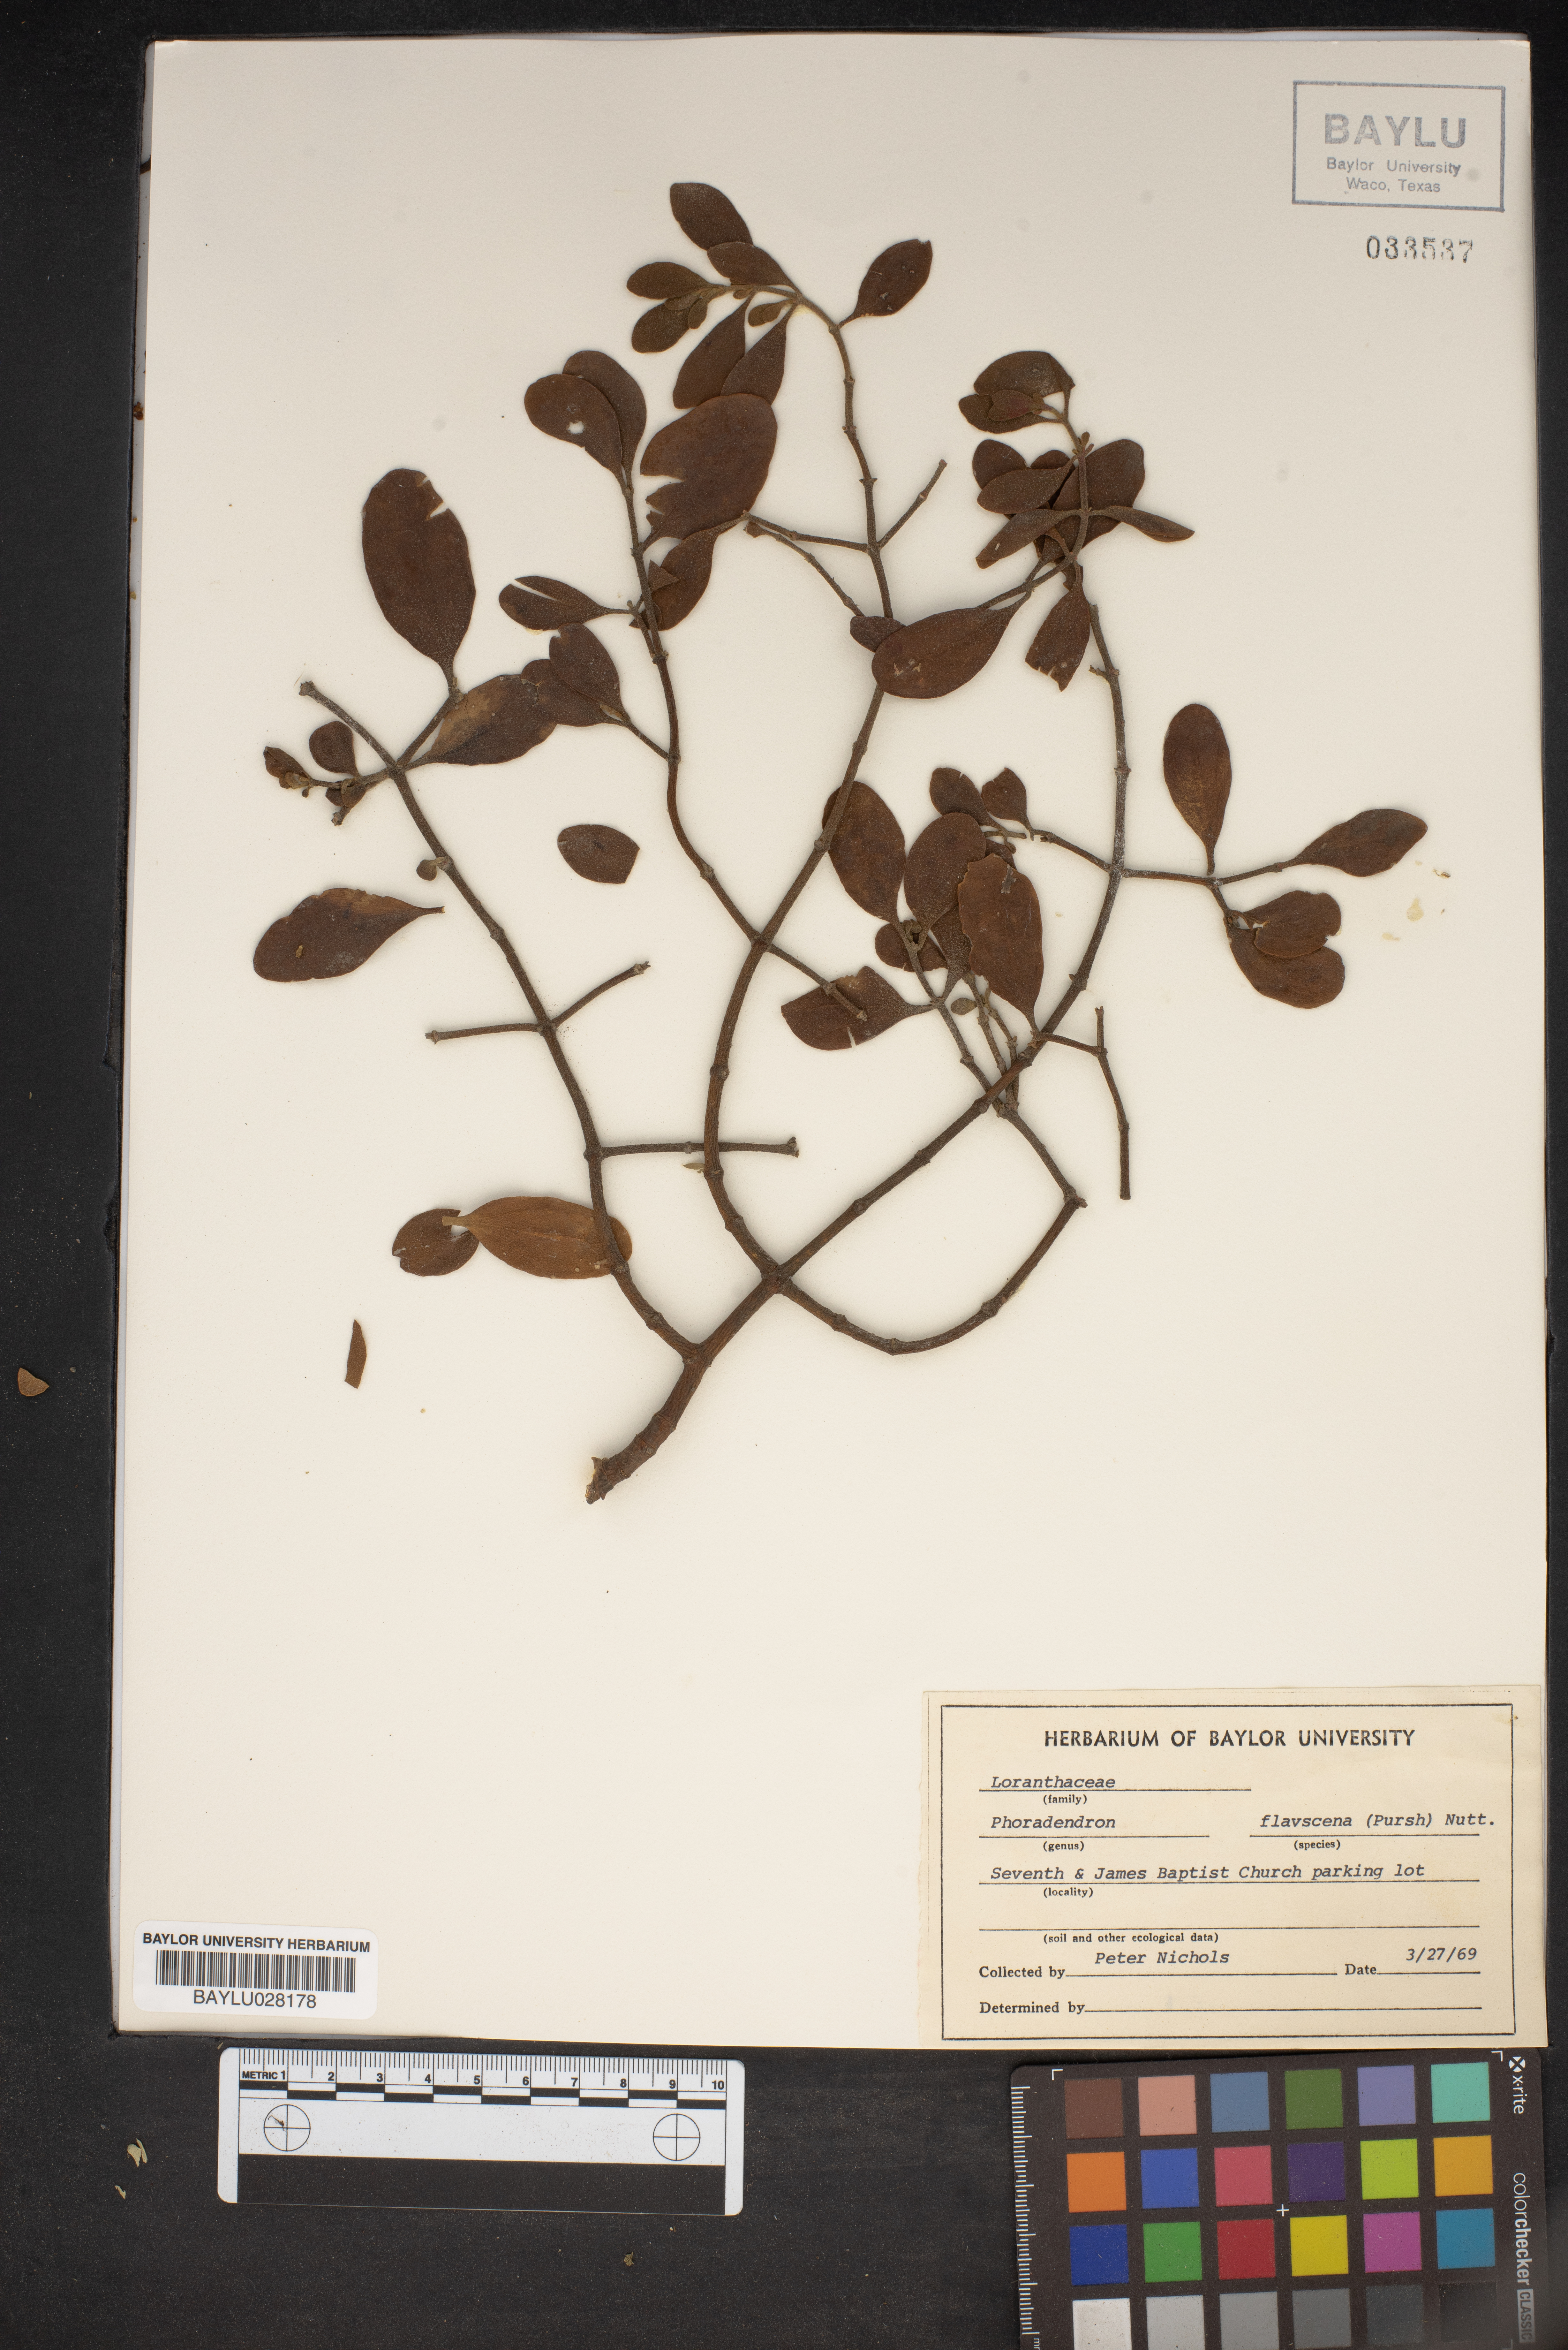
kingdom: Plantae
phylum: Tracheophyta
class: Magnoliopsida
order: Santalales
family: Viscaceae
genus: Phoradendron
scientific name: Phoradendron leucarpum
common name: Pacific mistletoe
